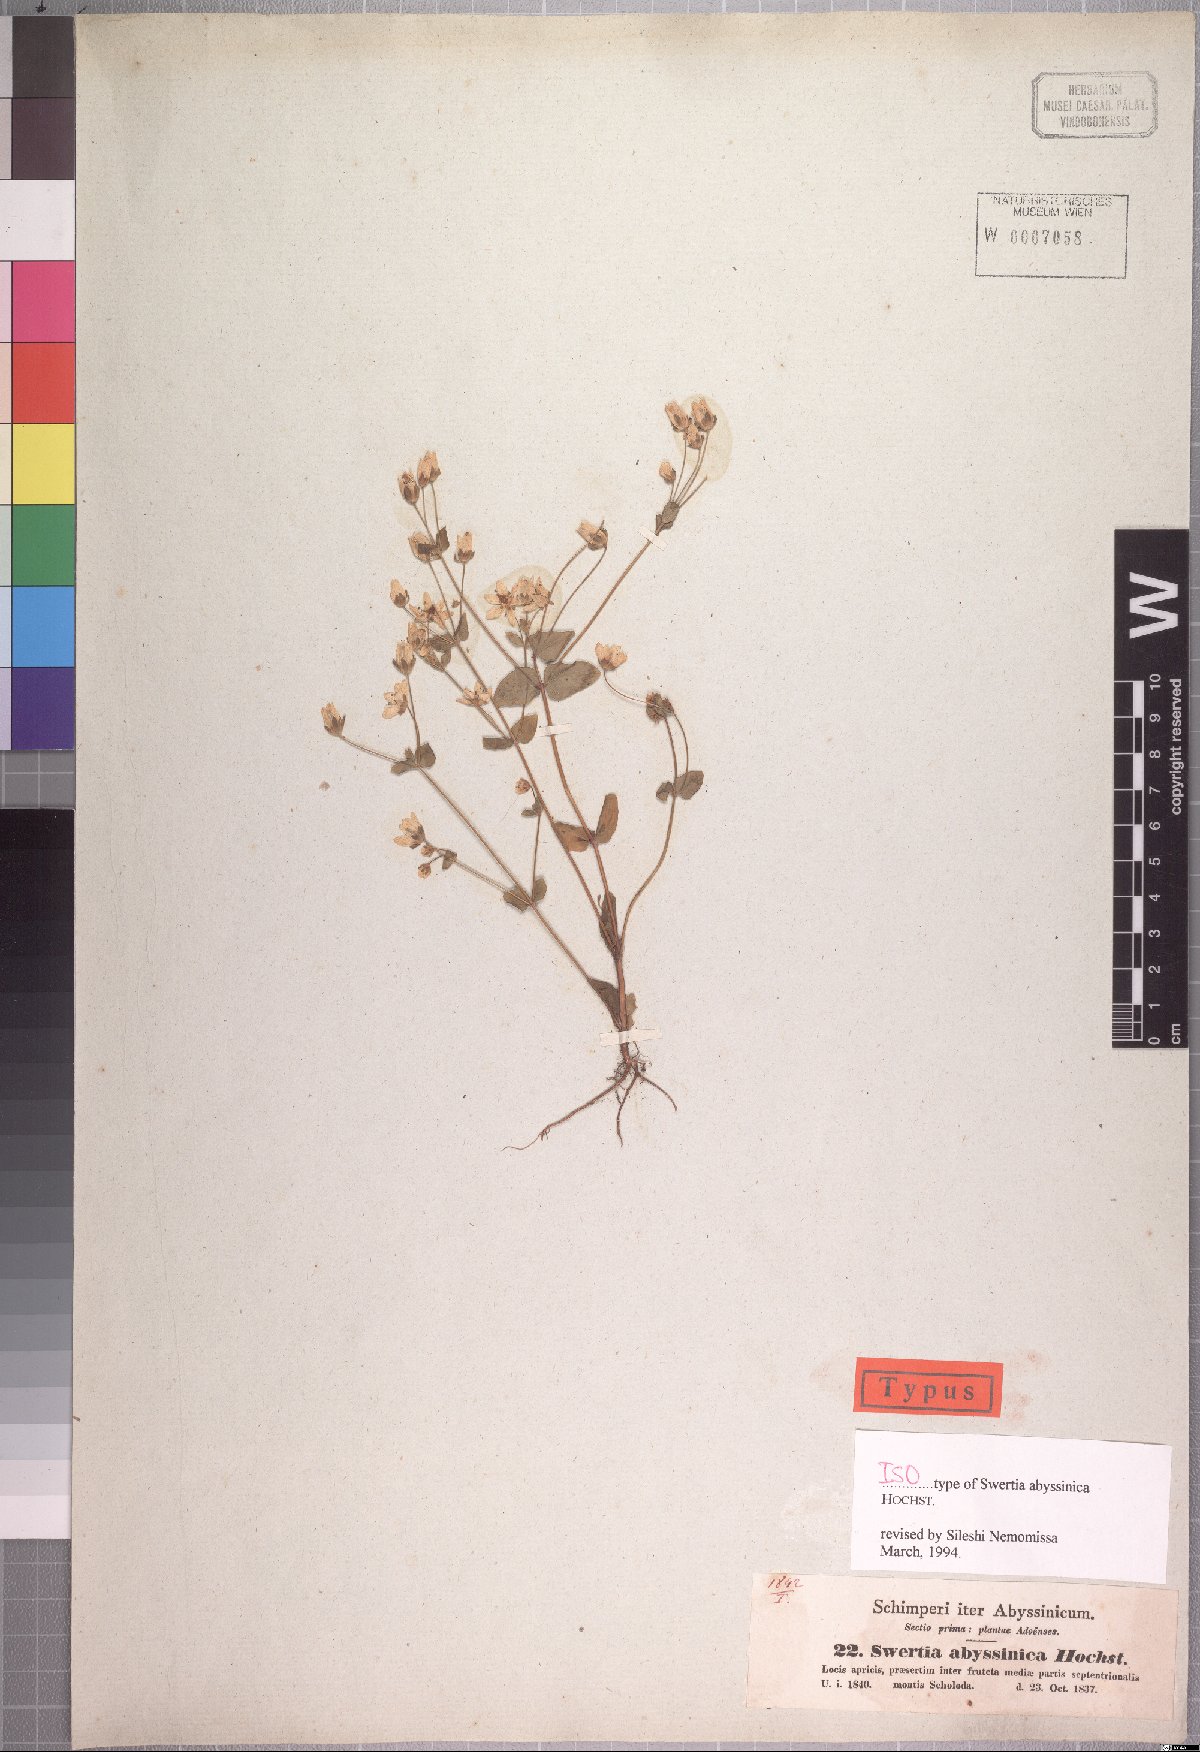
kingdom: Plantae
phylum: Tracheophyta
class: Magnoliopsida
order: Gentianales
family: Gentianaceae
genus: Swertia
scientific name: Swertia abyssinica
